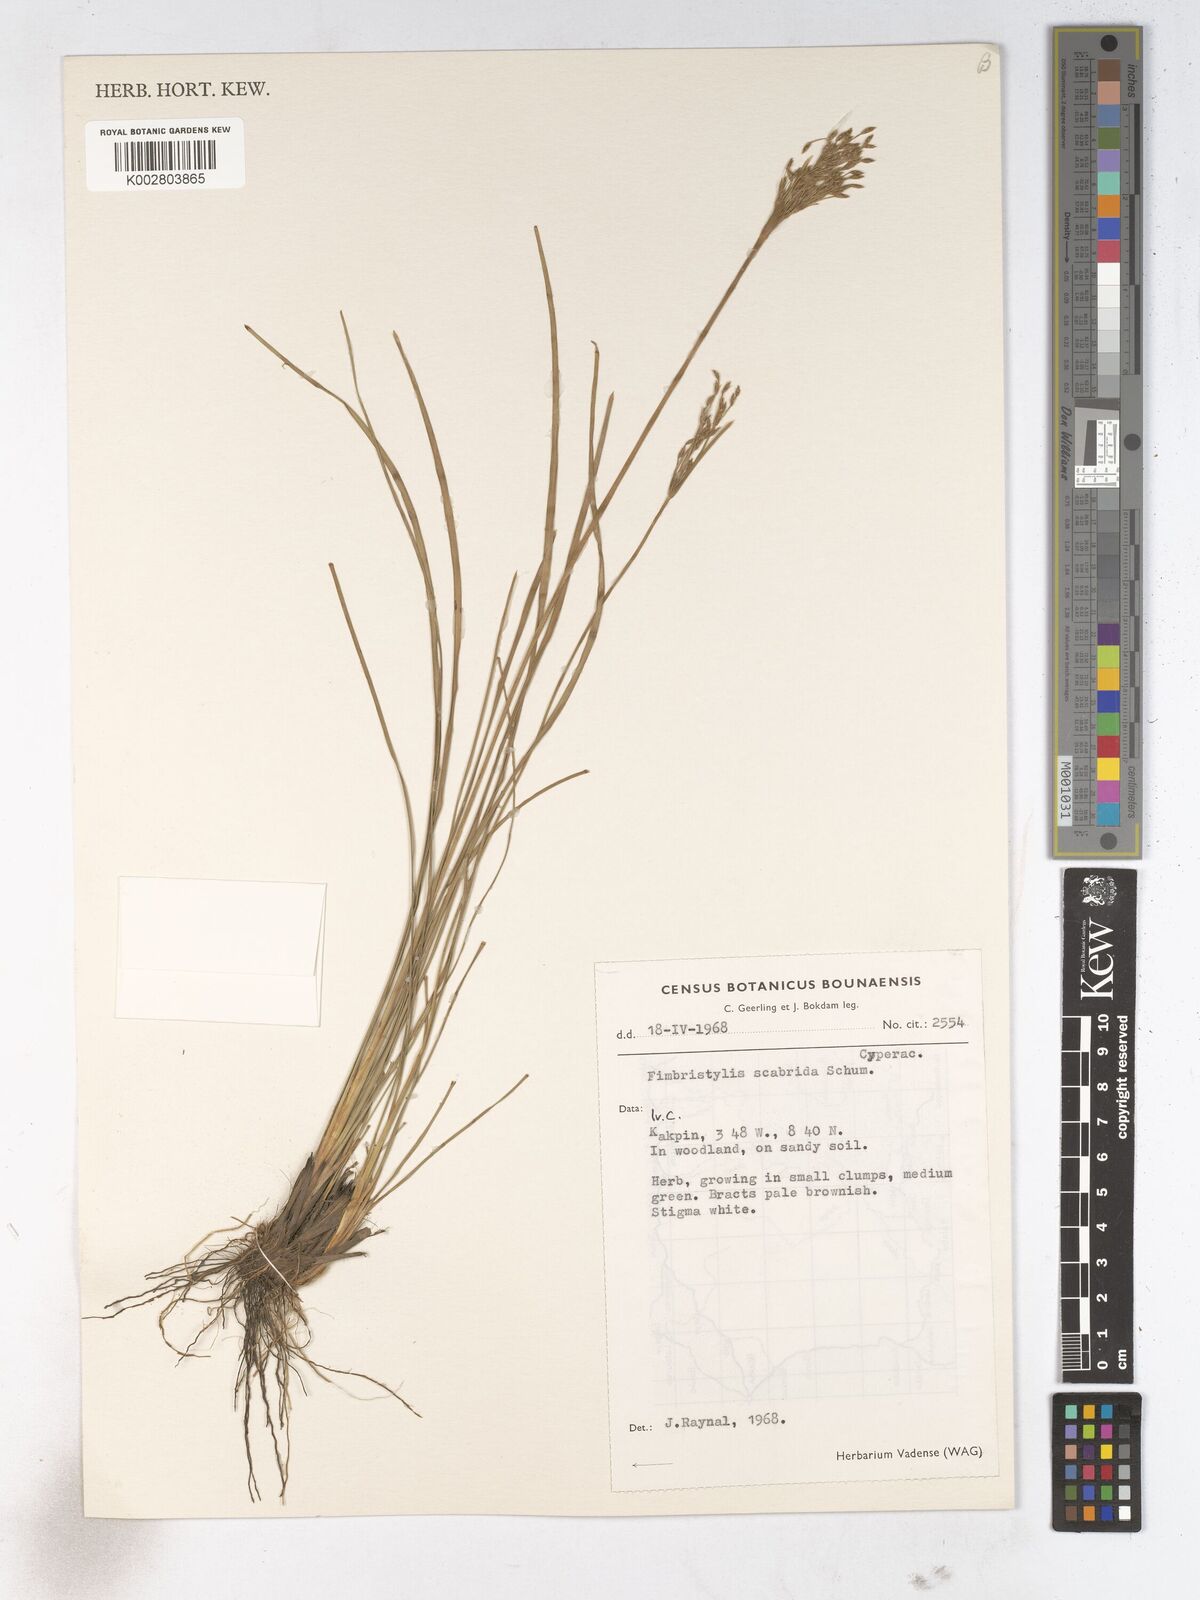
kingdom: Plantae
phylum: Tracheophyta
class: Liliopsida
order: Poales
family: Cyperaceae
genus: Fimbristylis
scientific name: Fimbristylis scabrida
